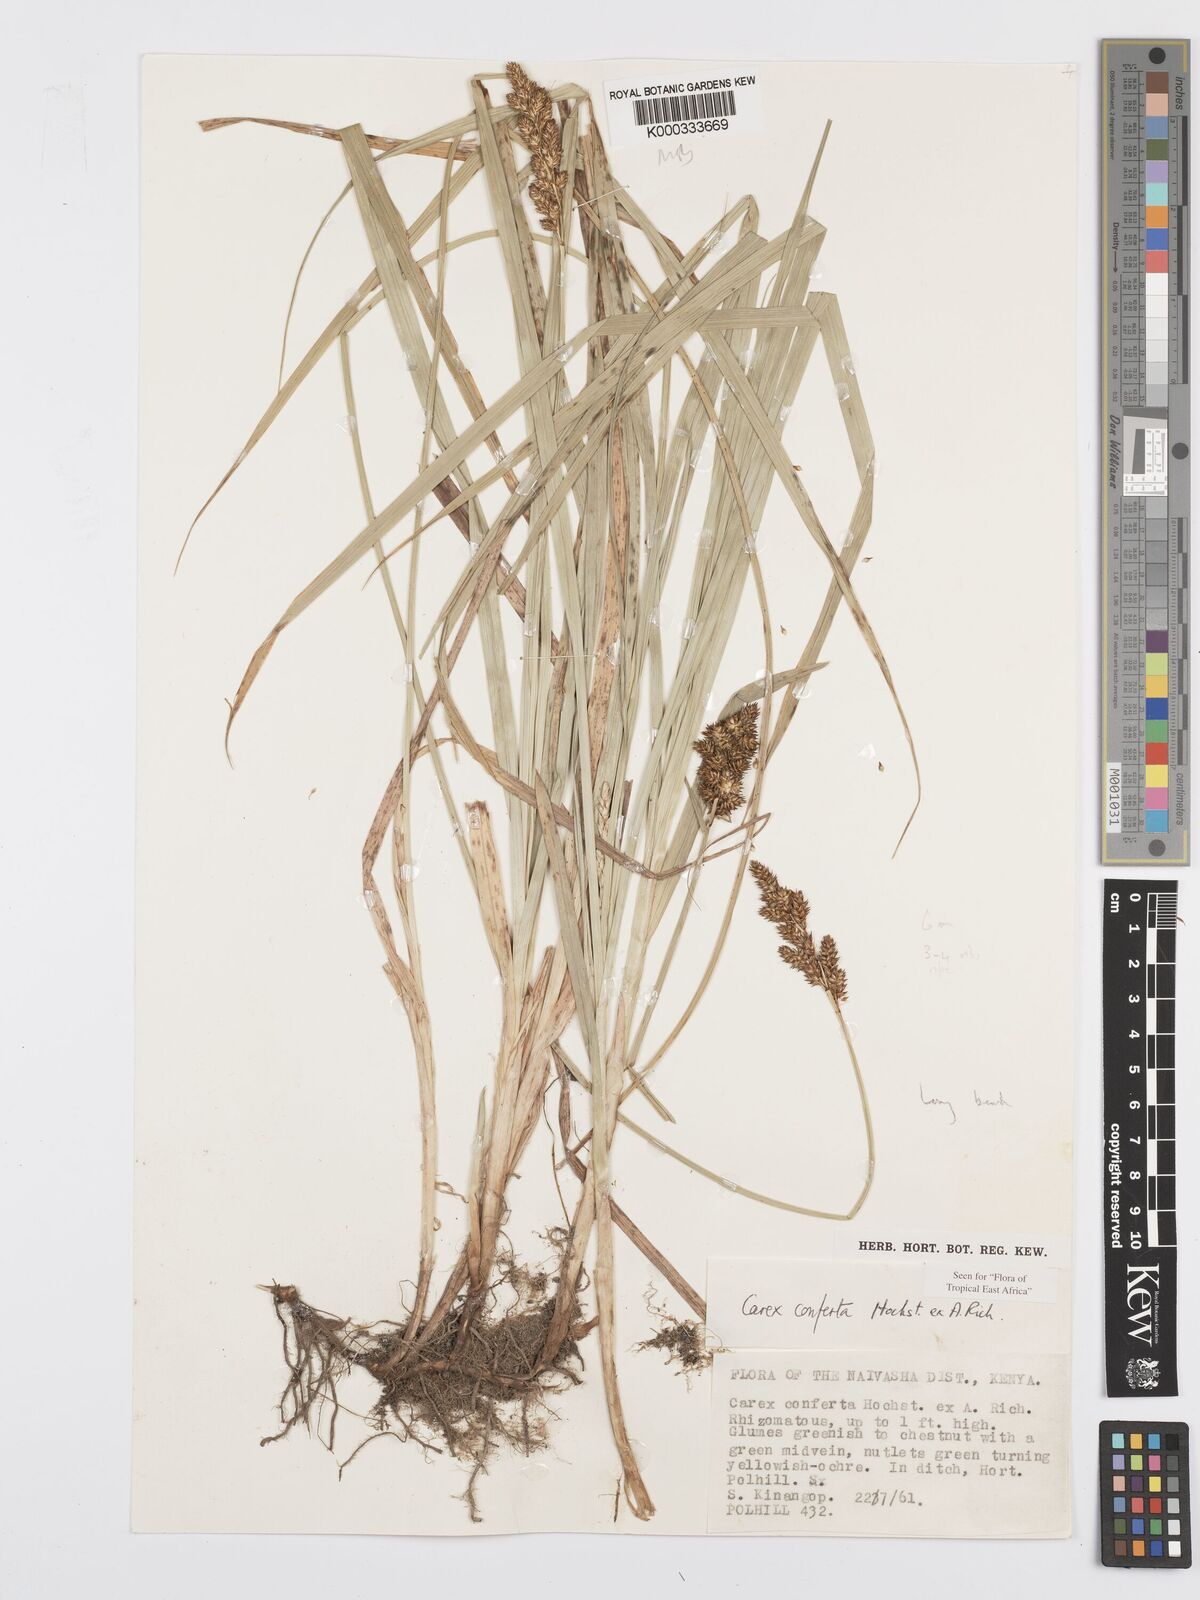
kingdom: Plantae
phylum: Tracheophyta
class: Liliopsida
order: Poales
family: Cyperaceae
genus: Carex
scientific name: Carex conferta
